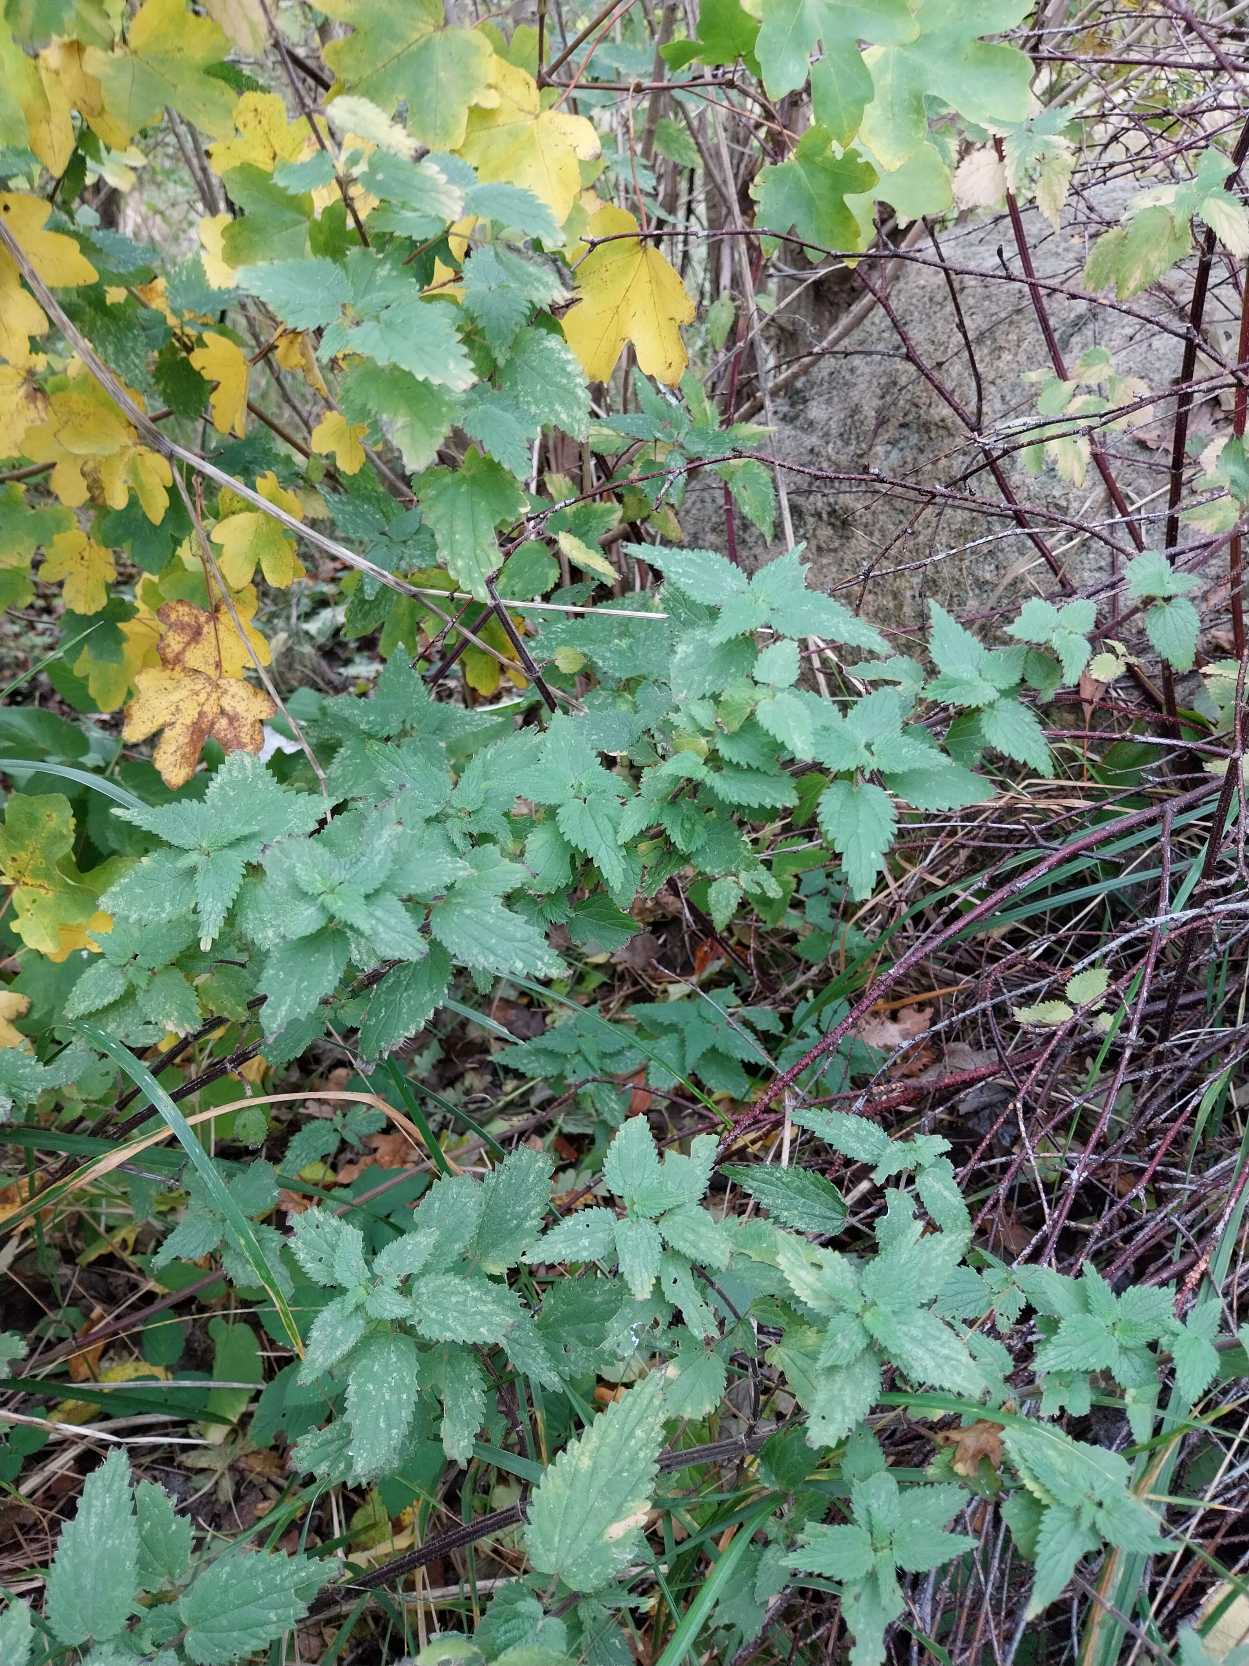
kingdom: Plantae
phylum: Tracheophyta
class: Magnoliopsida
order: Rosales
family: Urticaceae
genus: Urtica
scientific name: Urtica dioica
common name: Stor nælde
